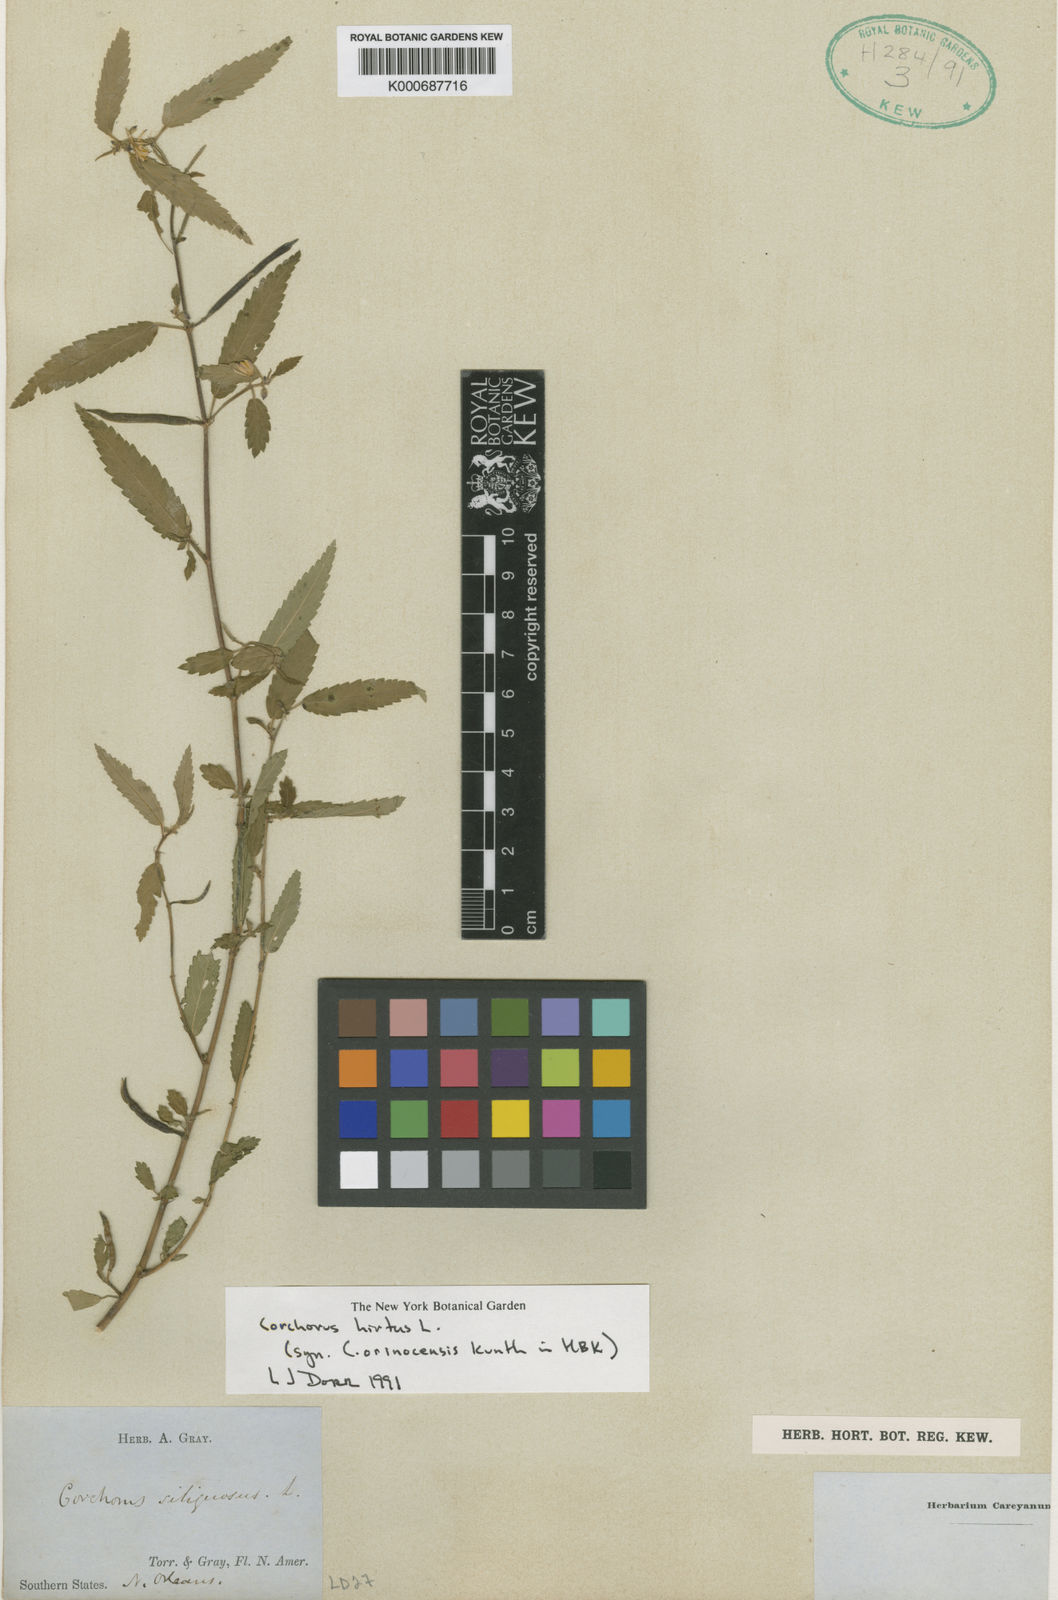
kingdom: Plantae
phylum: Tracheophyta
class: Magnoliopsida
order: Malvales
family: Malvaceae
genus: Corchorus
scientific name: Corchorus hirtus
